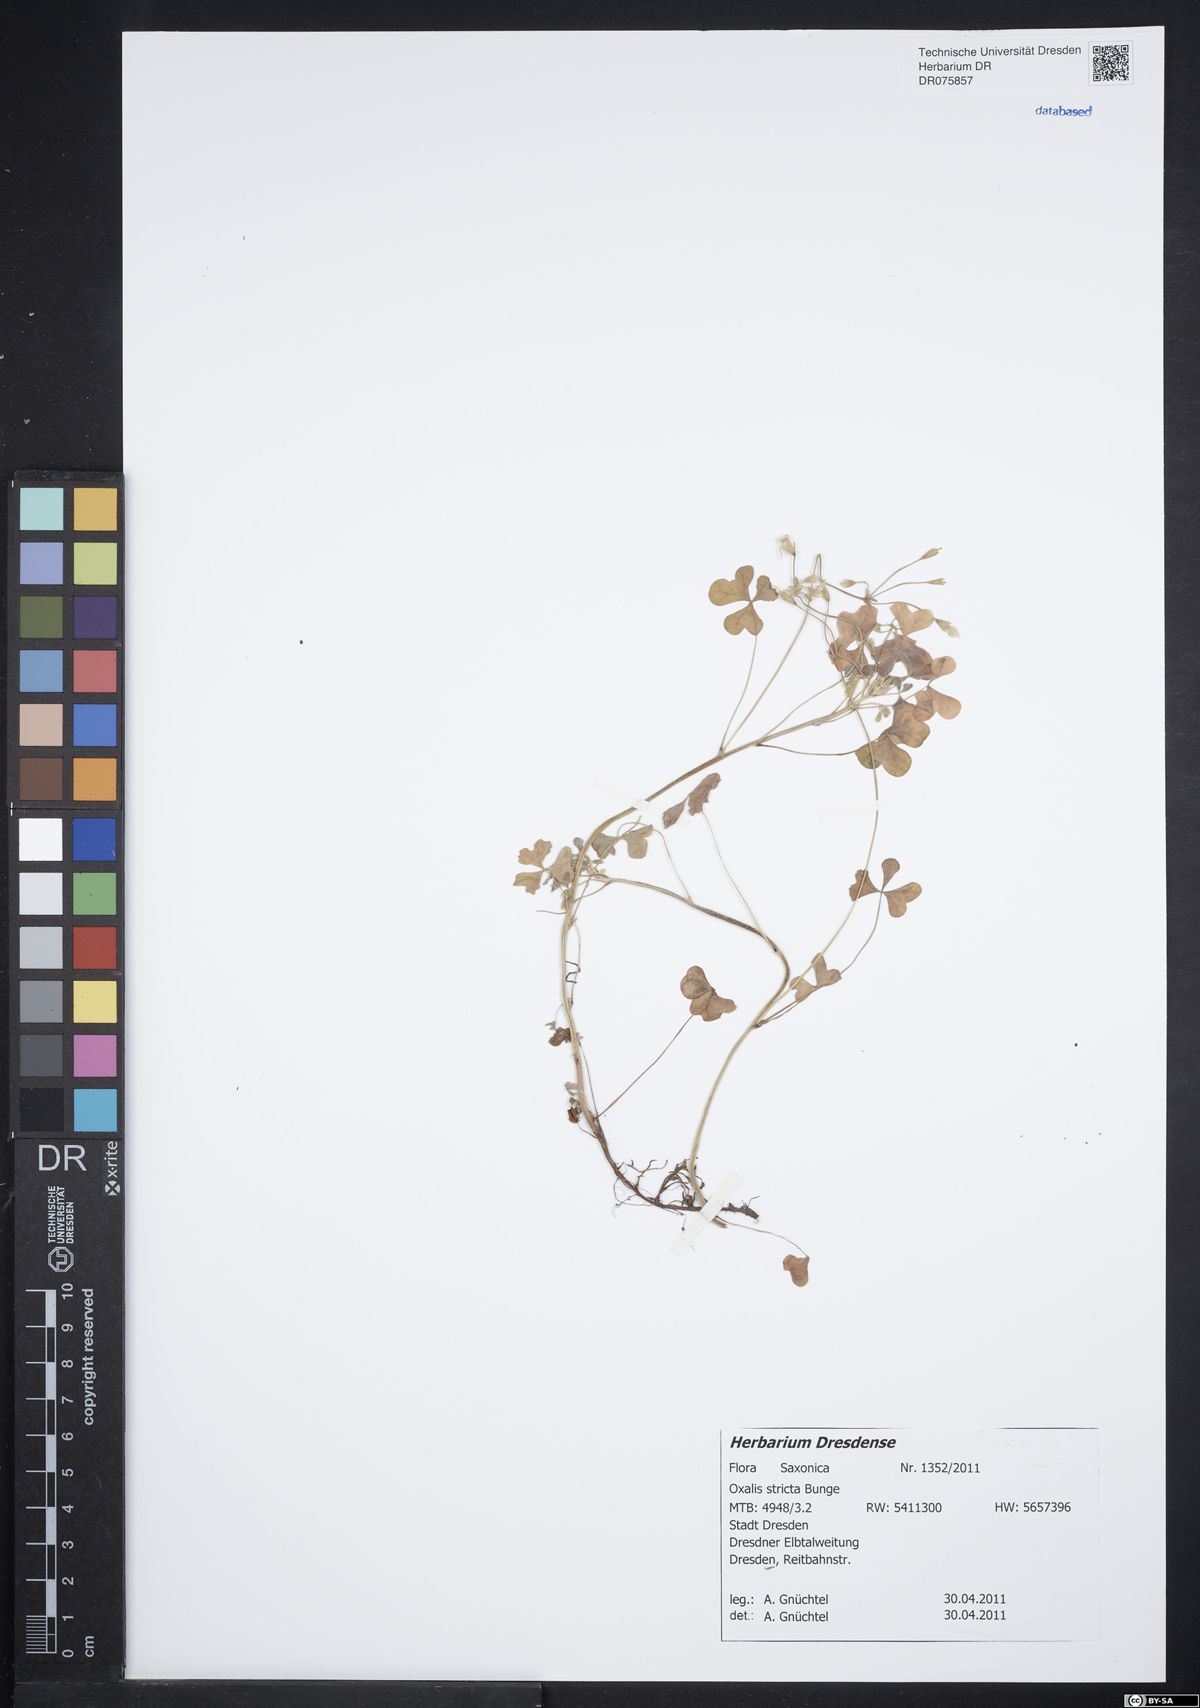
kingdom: Plantae
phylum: Tracheophyta
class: Magnoliopsida
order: Oxalidales
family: Oxalidaceae
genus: Oxalis
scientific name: Oxalis stricta
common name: Upright yellow-sorrel
